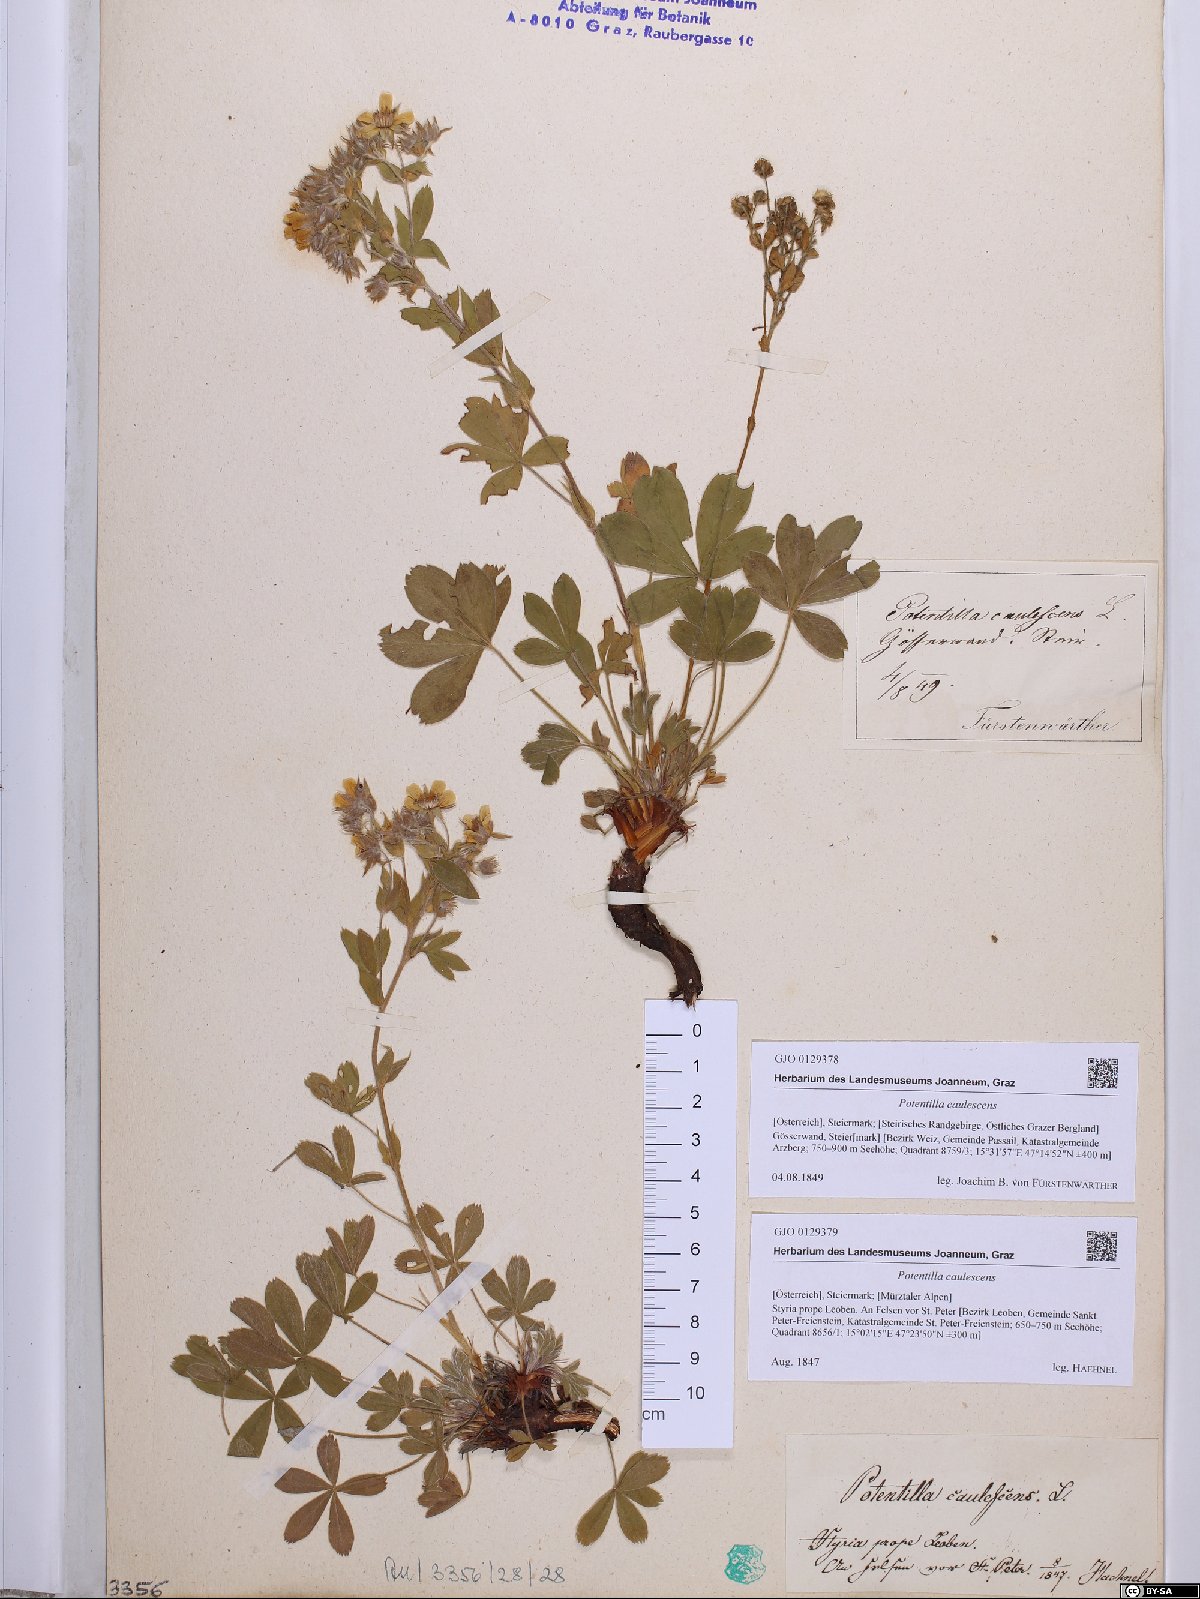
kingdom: Plantae
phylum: Tracheophyta
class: Magnoliopsida
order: Rosales
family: Rosaceae
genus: Potentilla
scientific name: Potentilla caulescens
